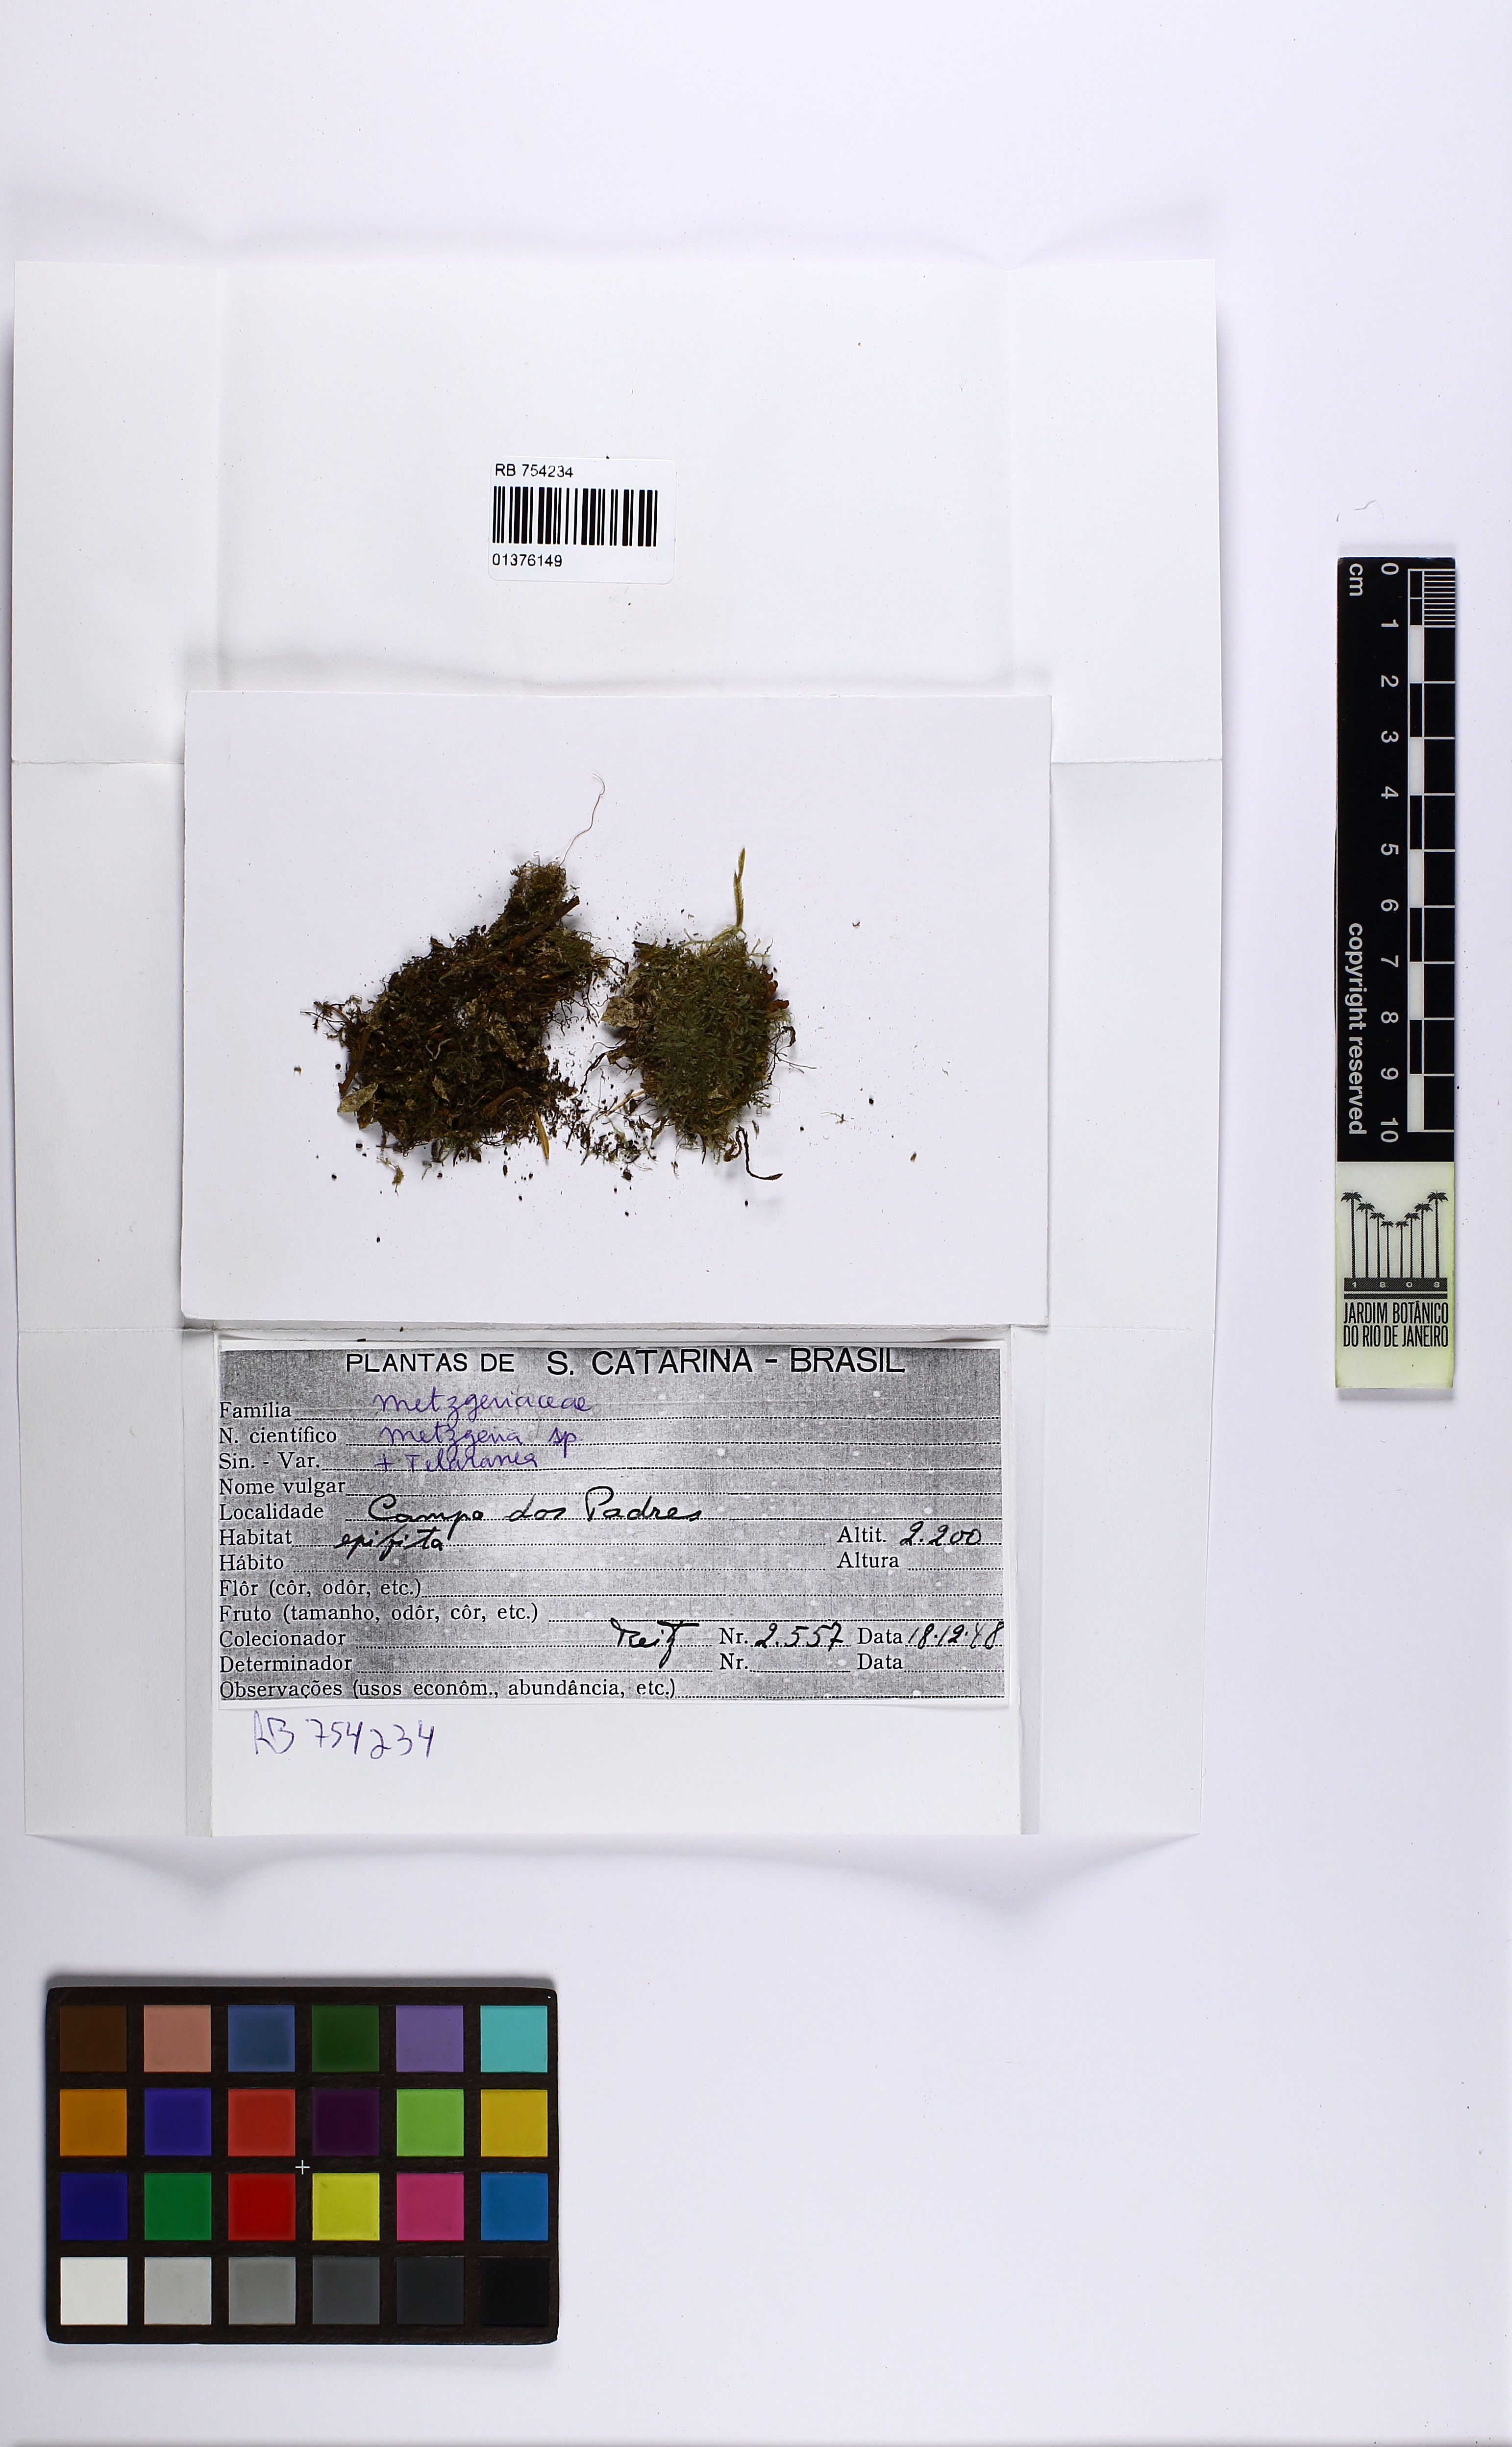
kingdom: Plantae
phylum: Marchantiophyta
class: Jungermanniopsida
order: Metzgeriales
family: Metzgeriaceae
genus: Metzgeria
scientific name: Metzgeria
